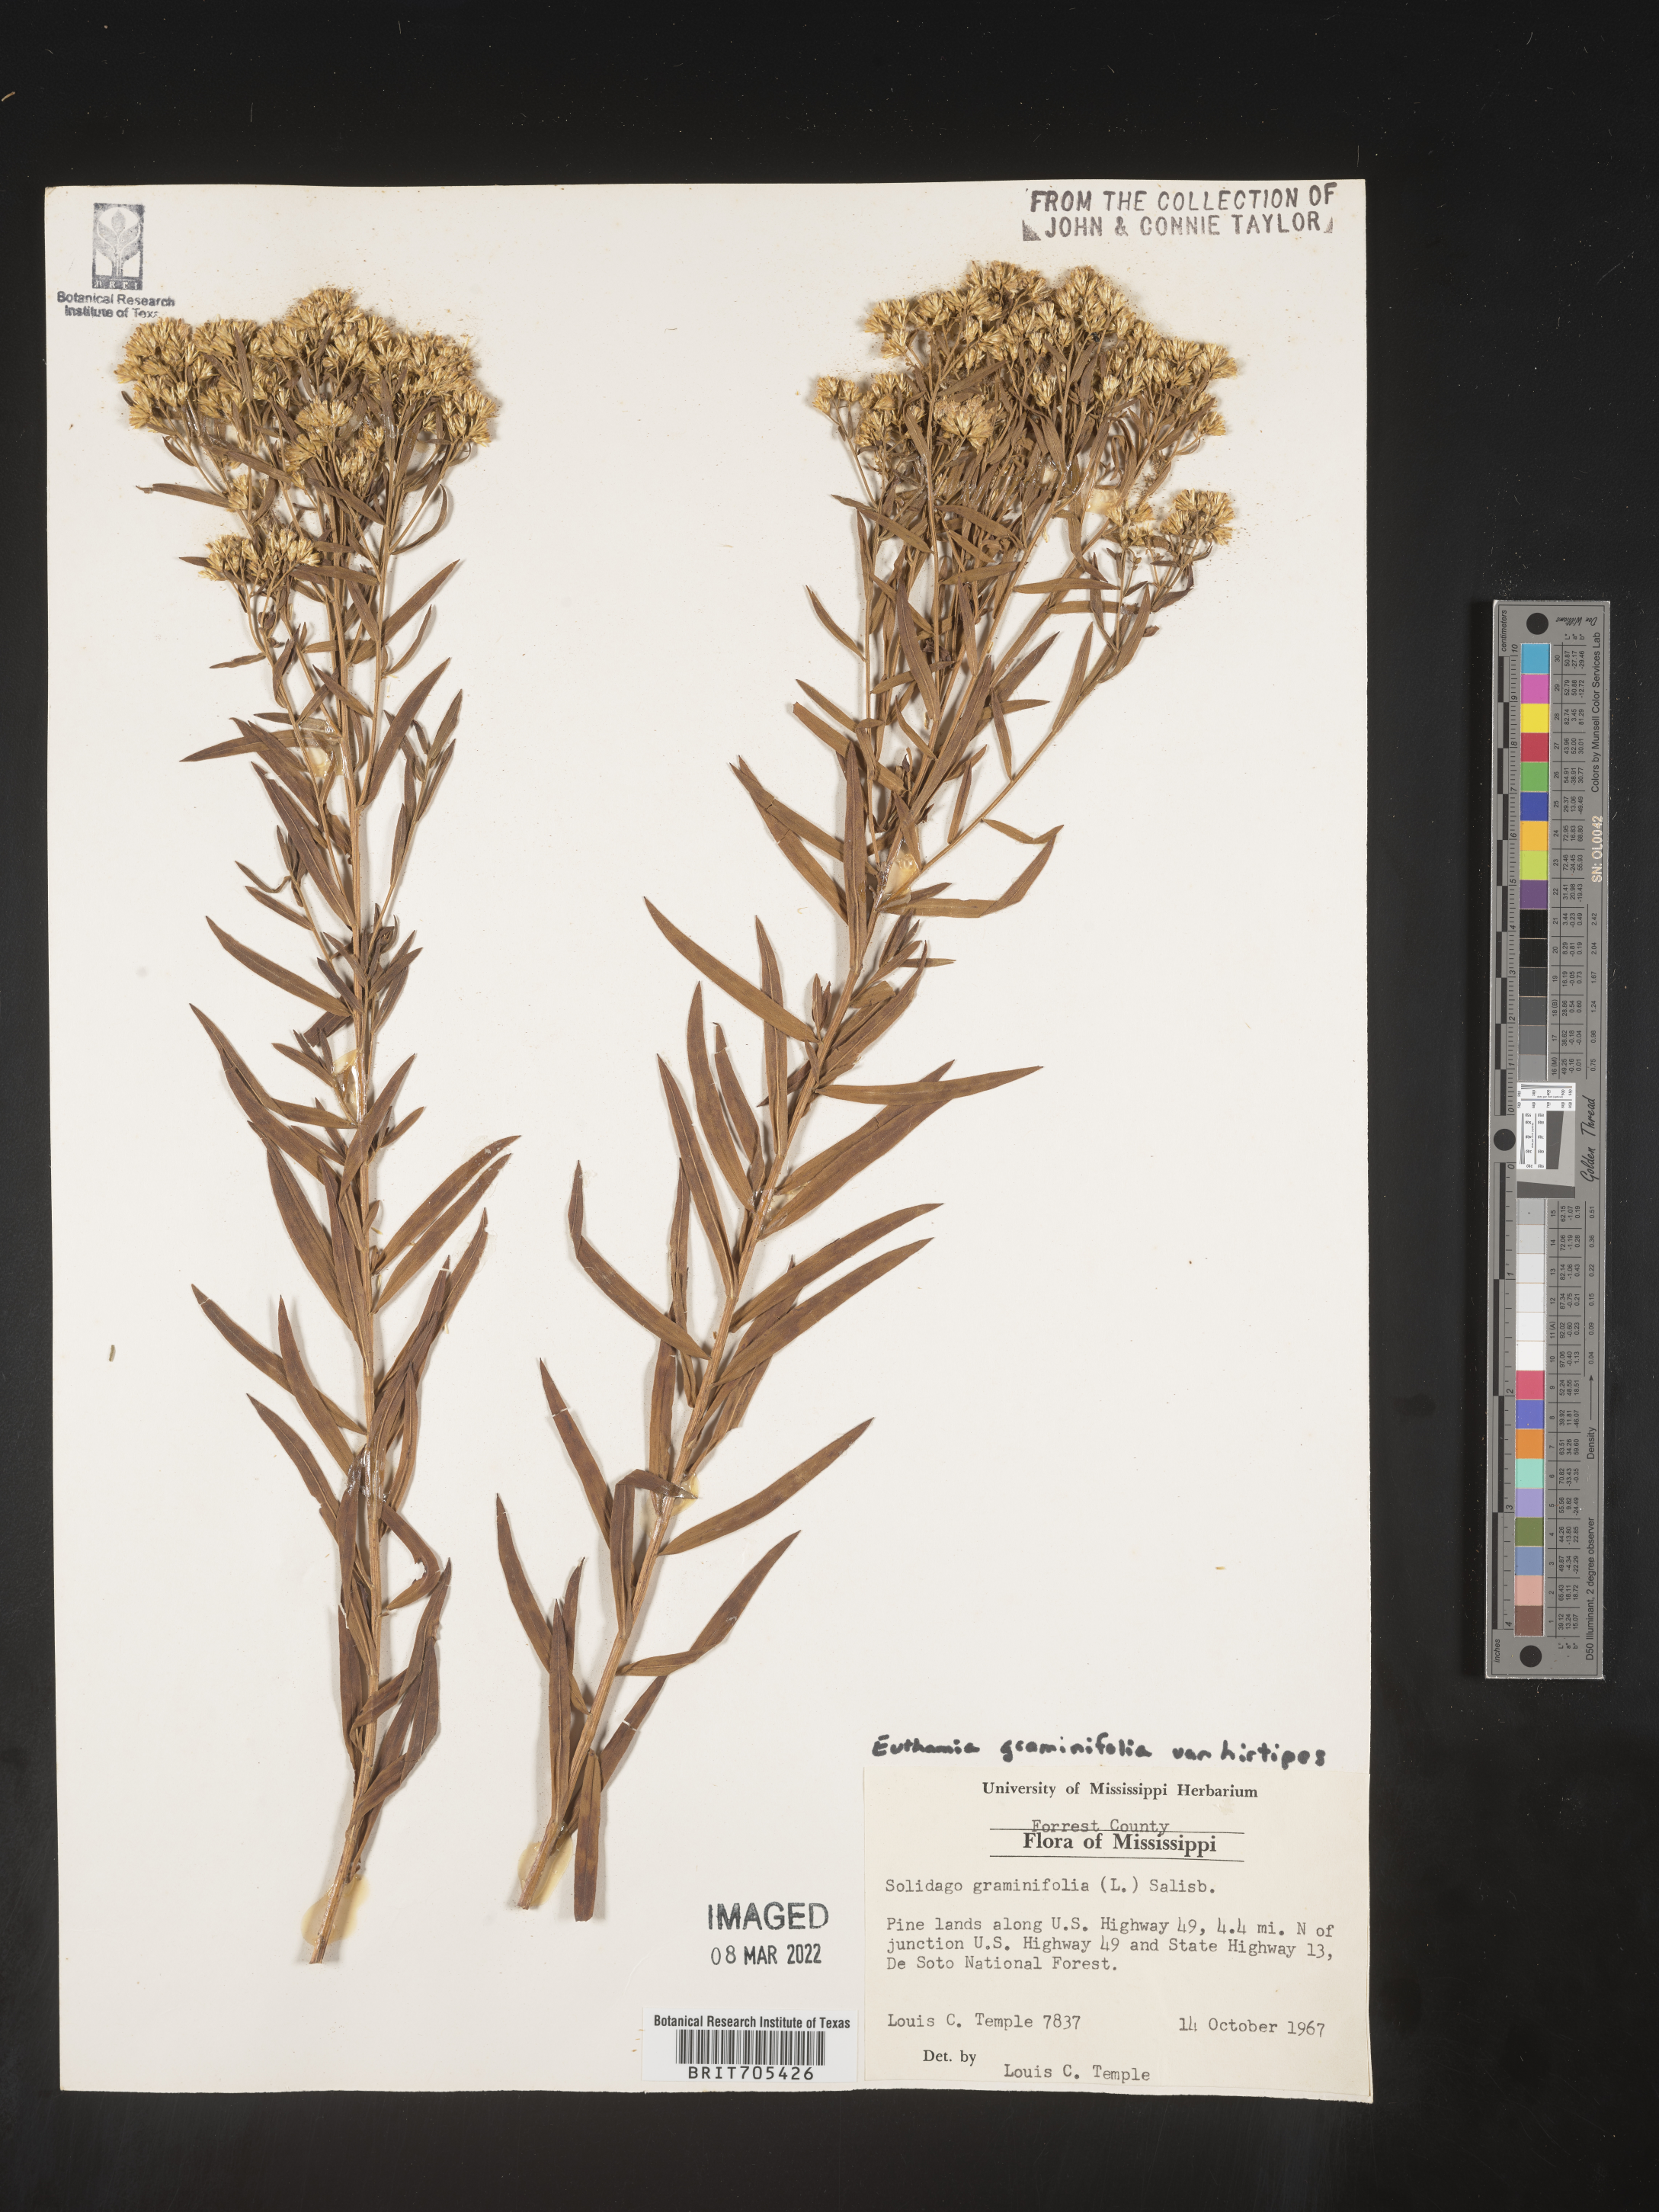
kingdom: Plantae
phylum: Tracheophyta
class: Magnoliopsida
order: Asterales
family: Asteraceae
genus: Euthamia
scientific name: Euthamia
